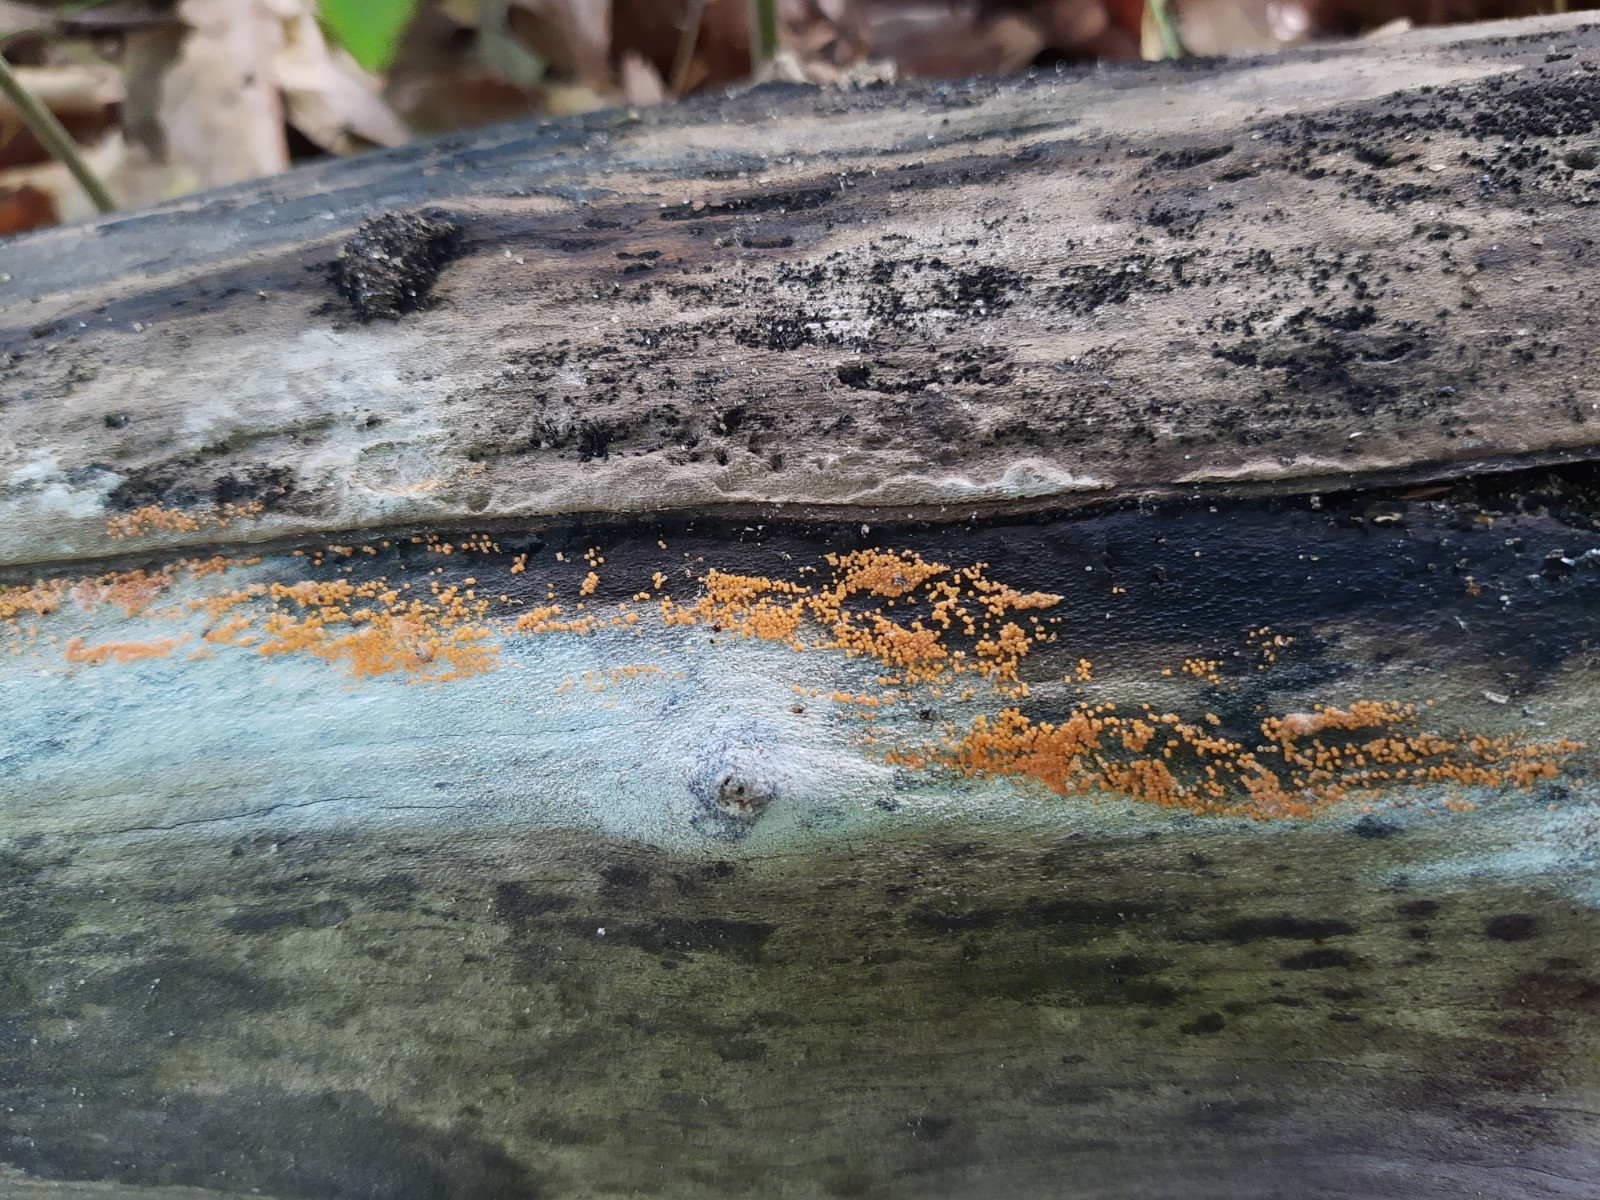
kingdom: Fungi
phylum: Ascomycota
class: Sordariomycetes
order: Hypocreales
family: Nectriaceae
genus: Hydropisphaera
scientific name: Hydropisphaera peziza
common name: skålformet gyldenkerne
